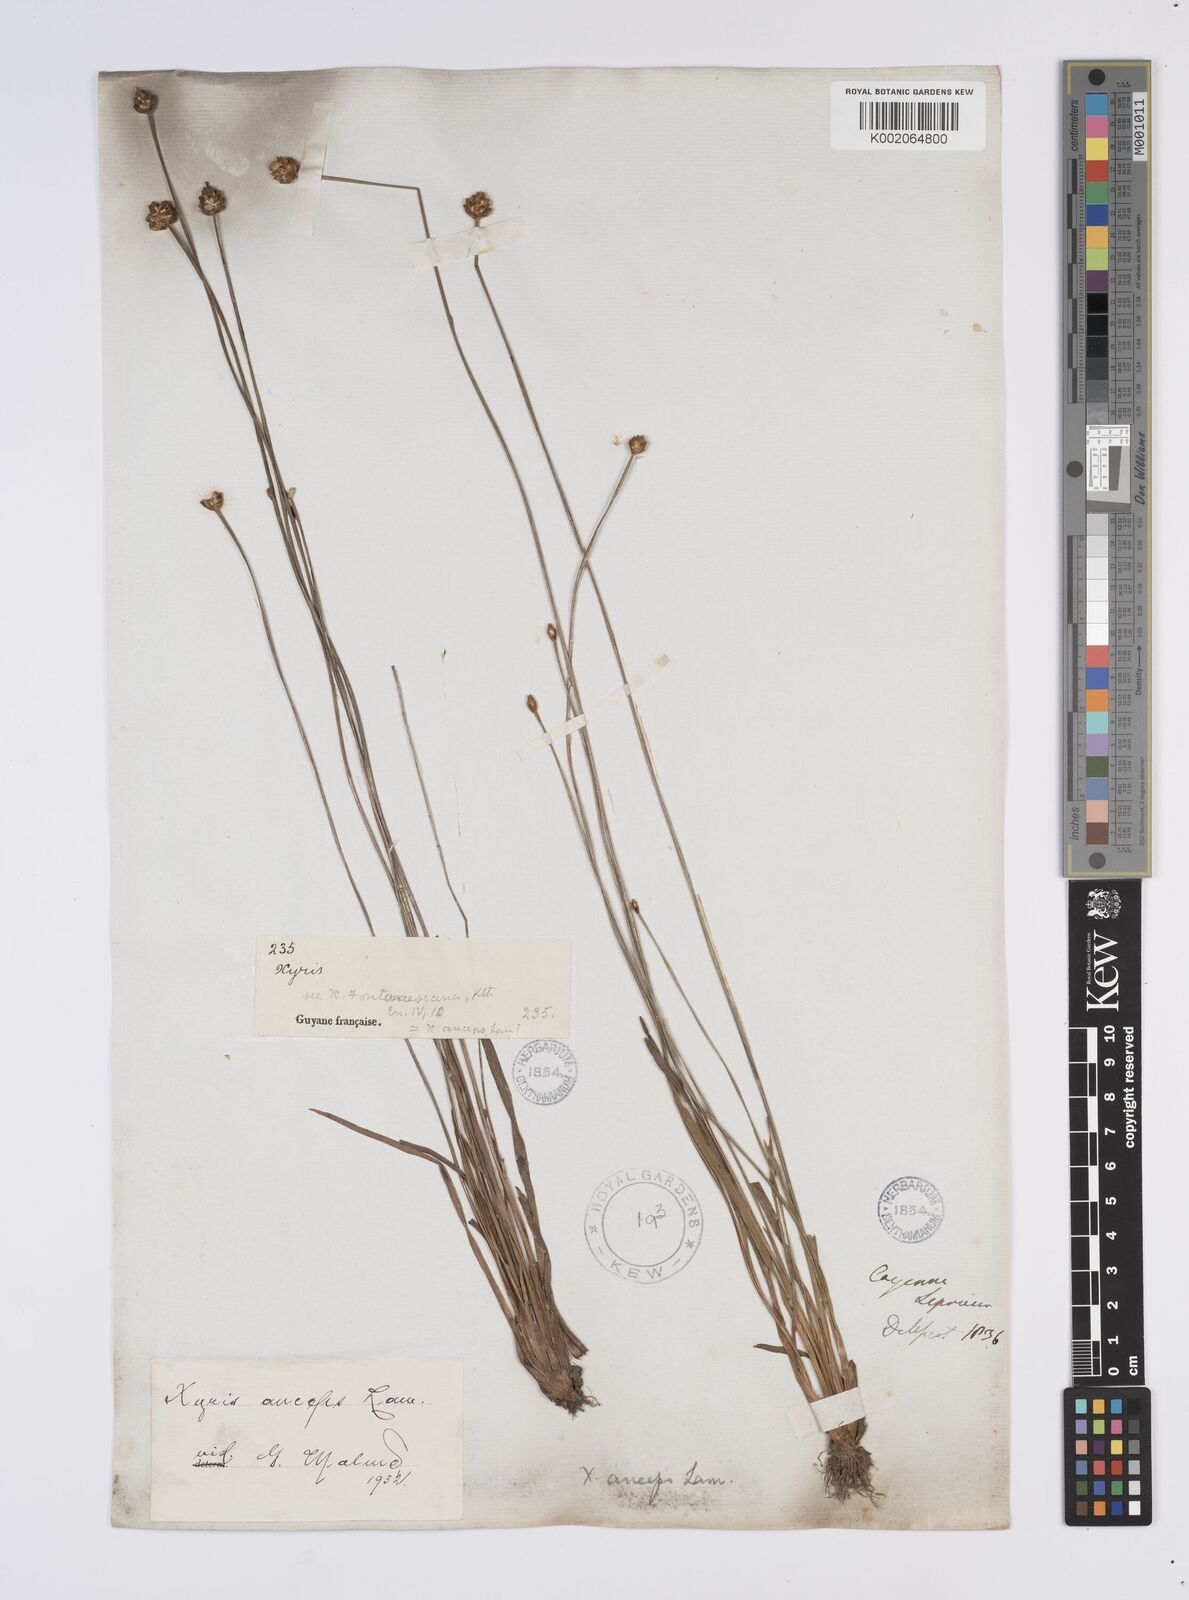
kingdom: Plantae
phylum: Tracheophyta
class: Liliopsida
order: Poales
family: Xyridaceae
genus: Xyris
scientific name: Xyris anceps
